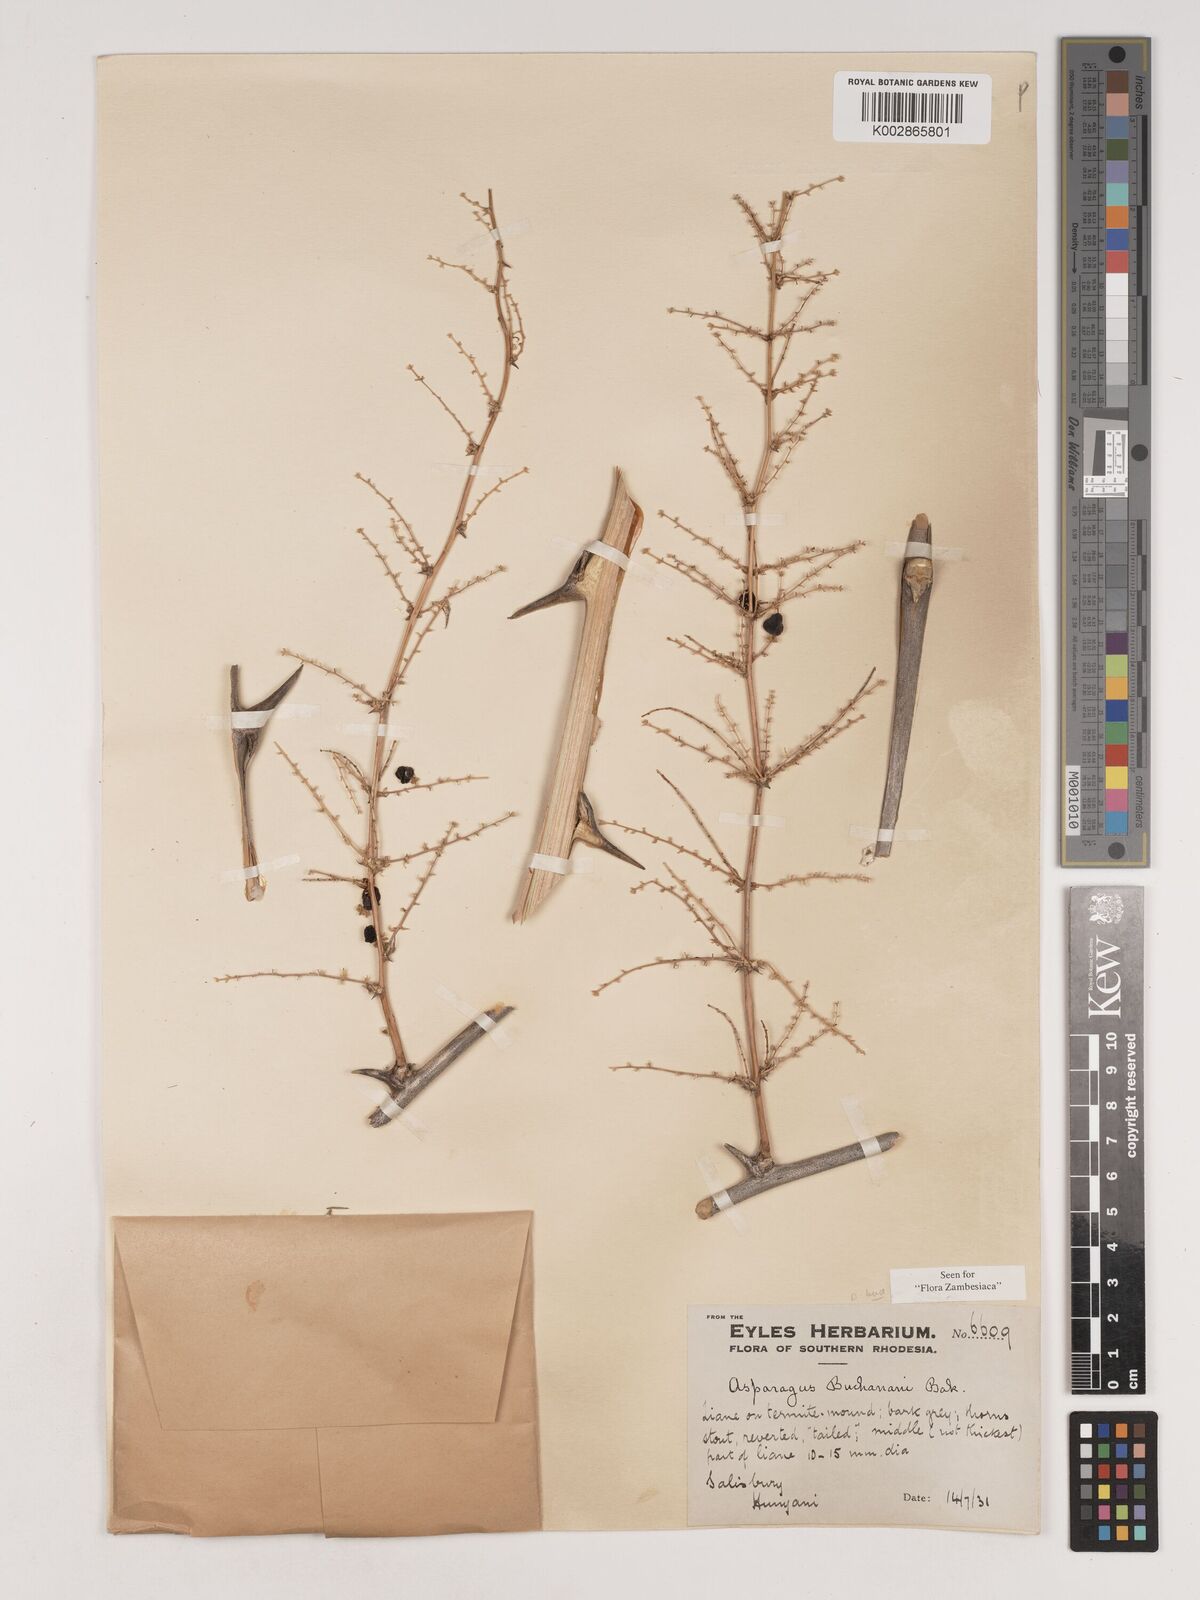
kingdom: Plantae
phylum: Tracheophyta
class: Liliopsida
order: Asparagales
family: Asparagaceae
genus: Asparagus
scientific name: Asparagus buchananii
